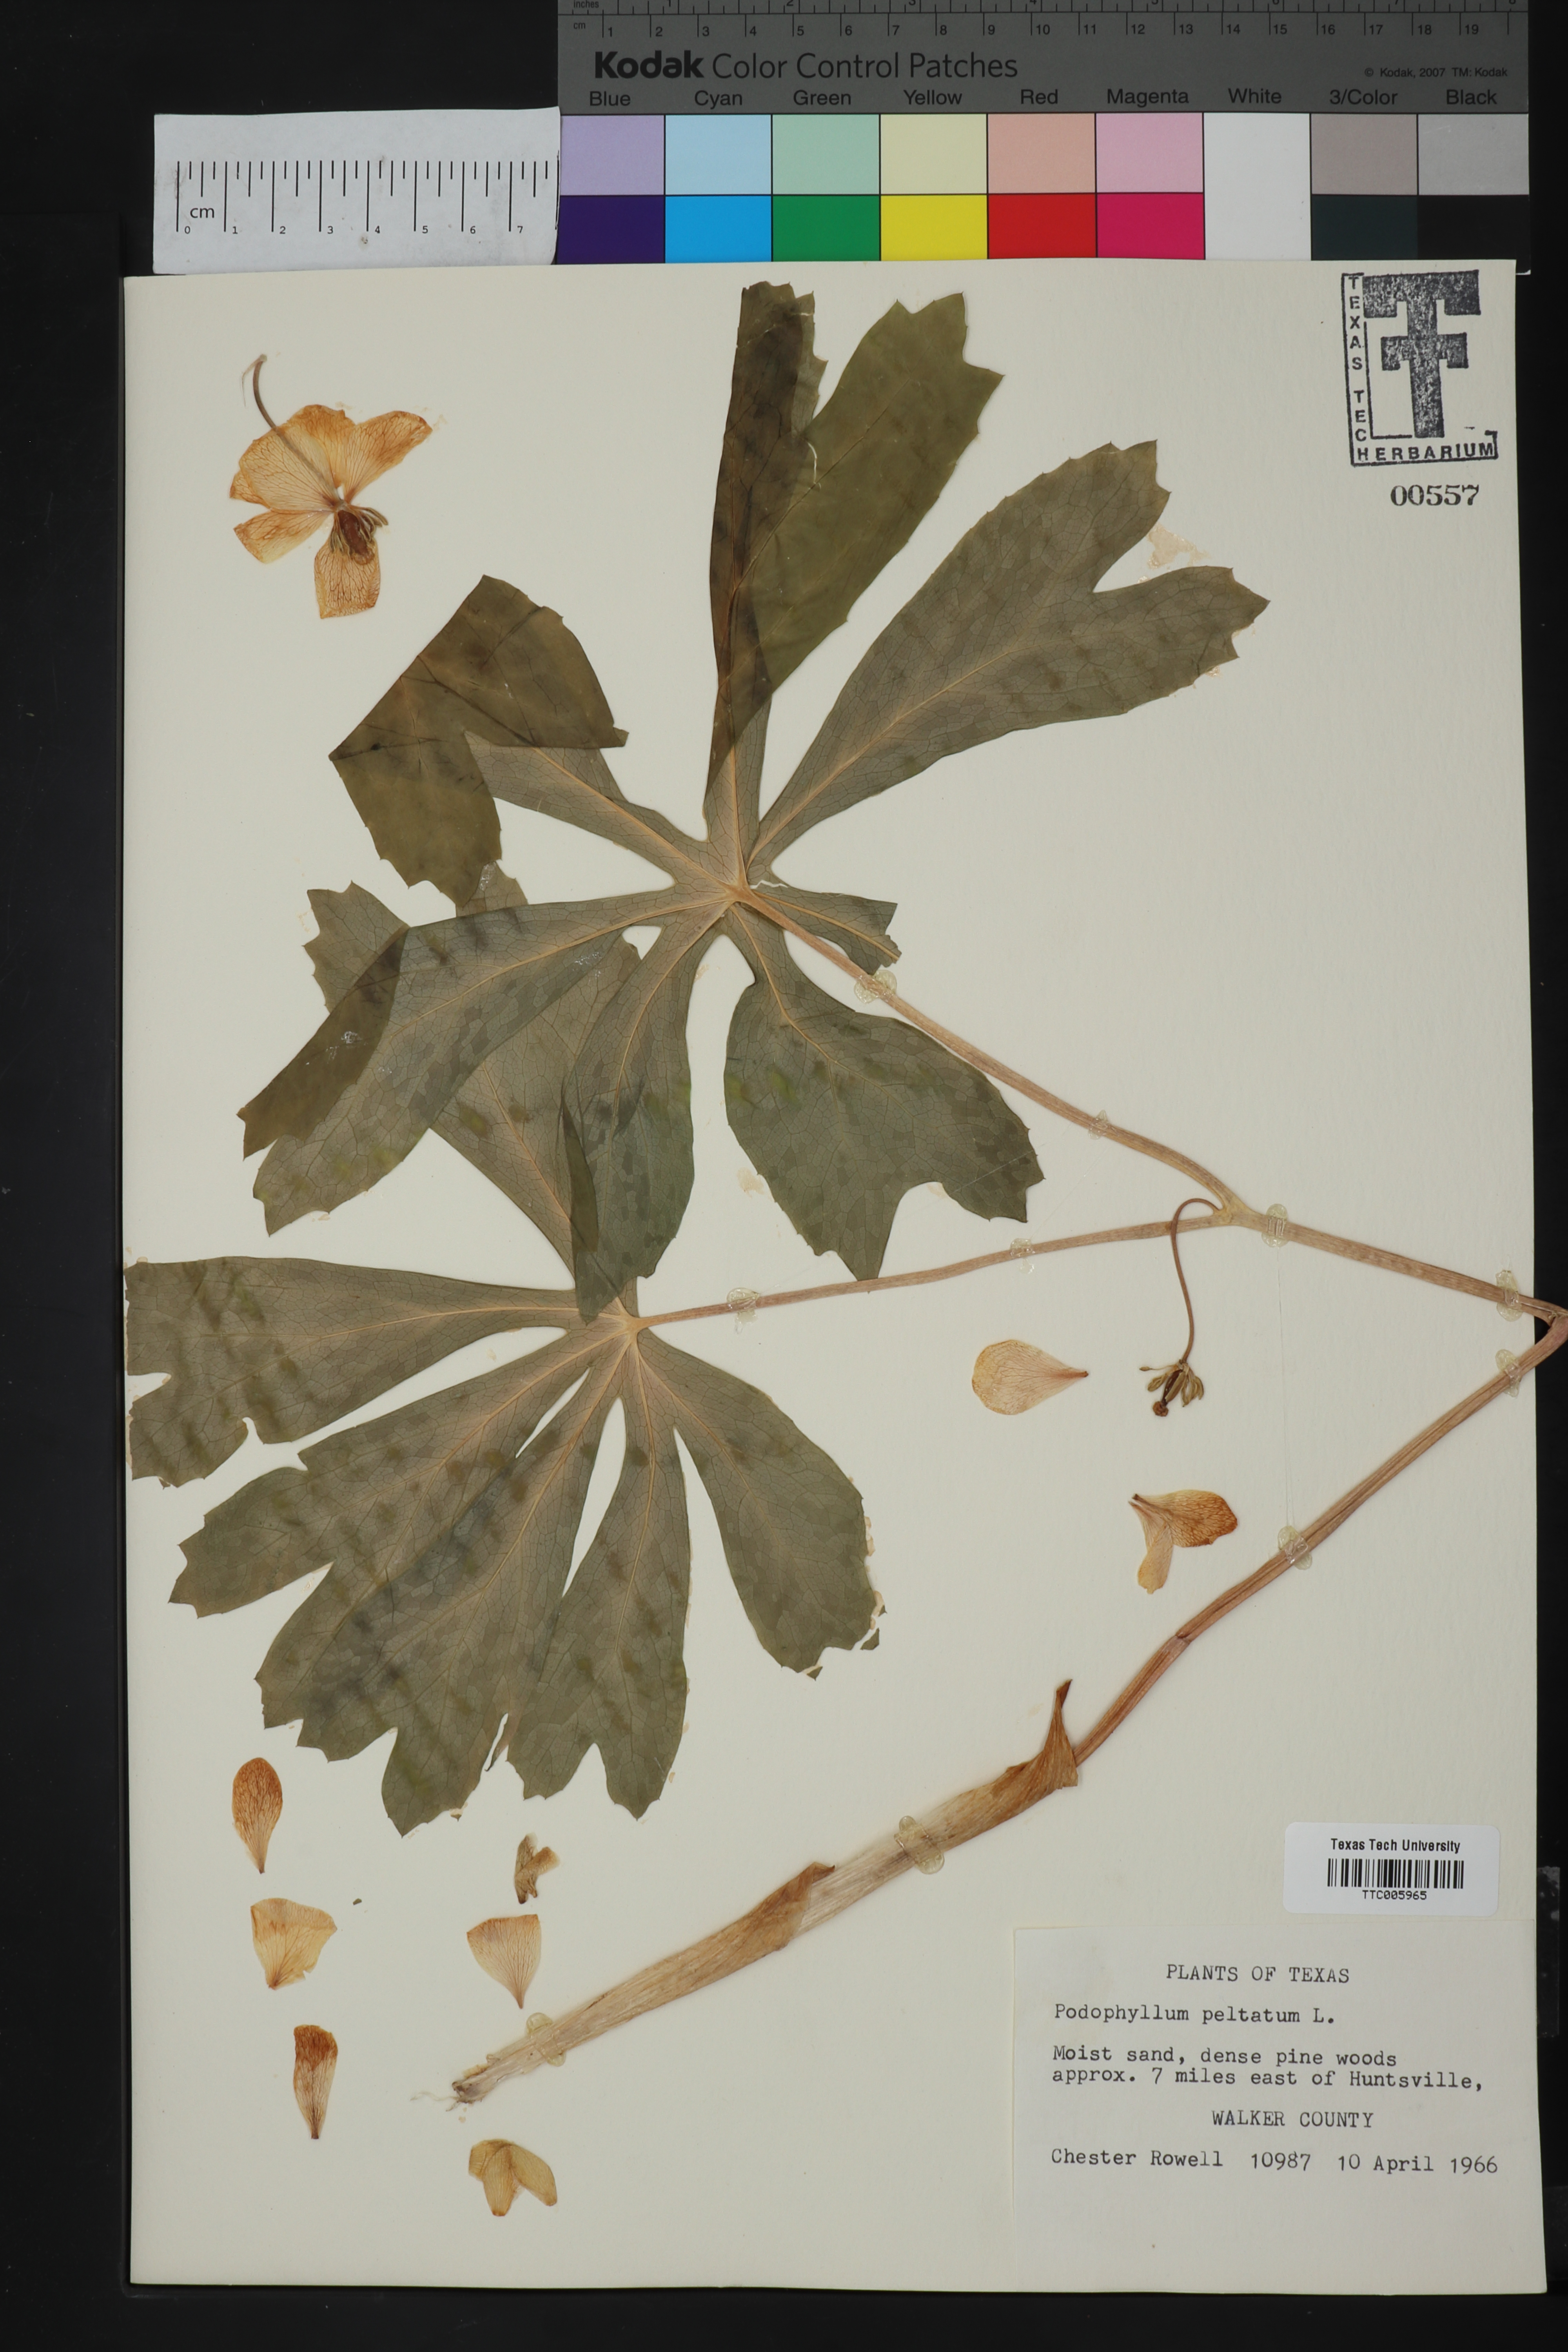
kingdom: Plantae
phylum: Tracheophyta
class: Magnoliopsida
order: Ranunculales
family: Berberidaceae
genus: Podophyllum
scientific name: Podophyllum peltatum
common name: Wild mandrake
